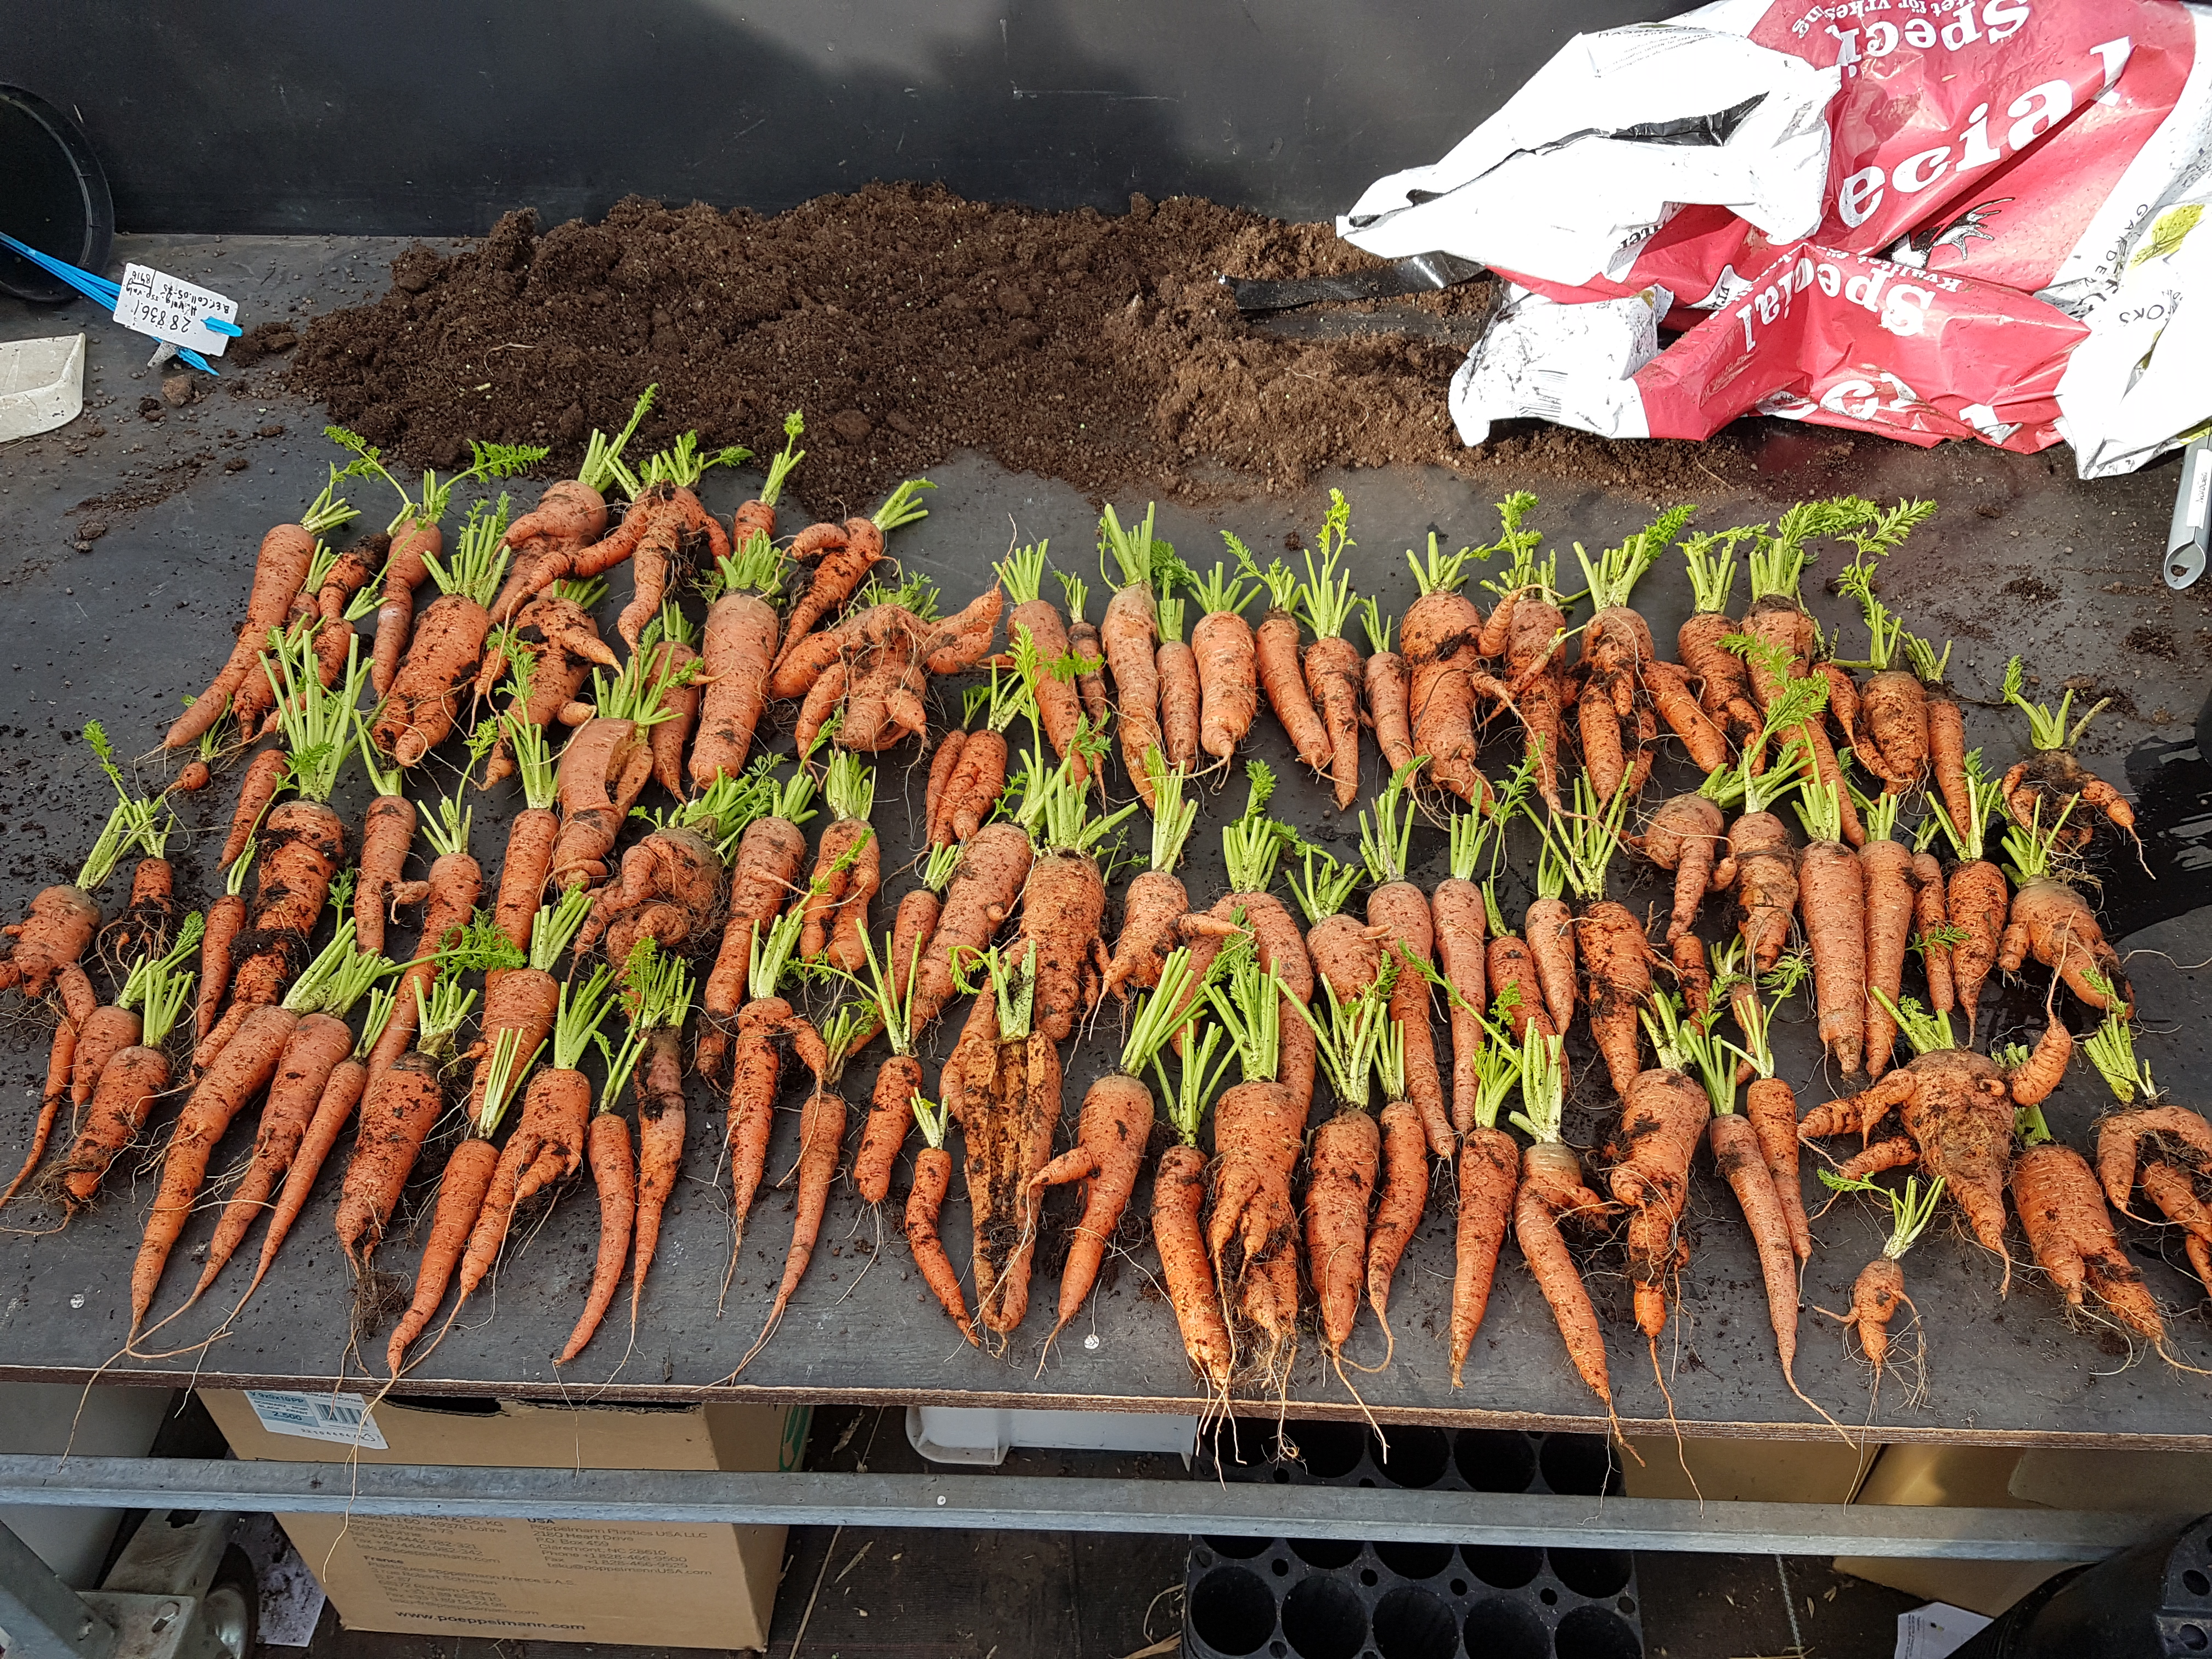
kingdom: Plantae
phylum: Tracheophyta
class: Magnoliopsida
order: Apiales
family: Apiaceae
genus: Daucus
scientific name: Daucus carota
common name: Wild carrot
